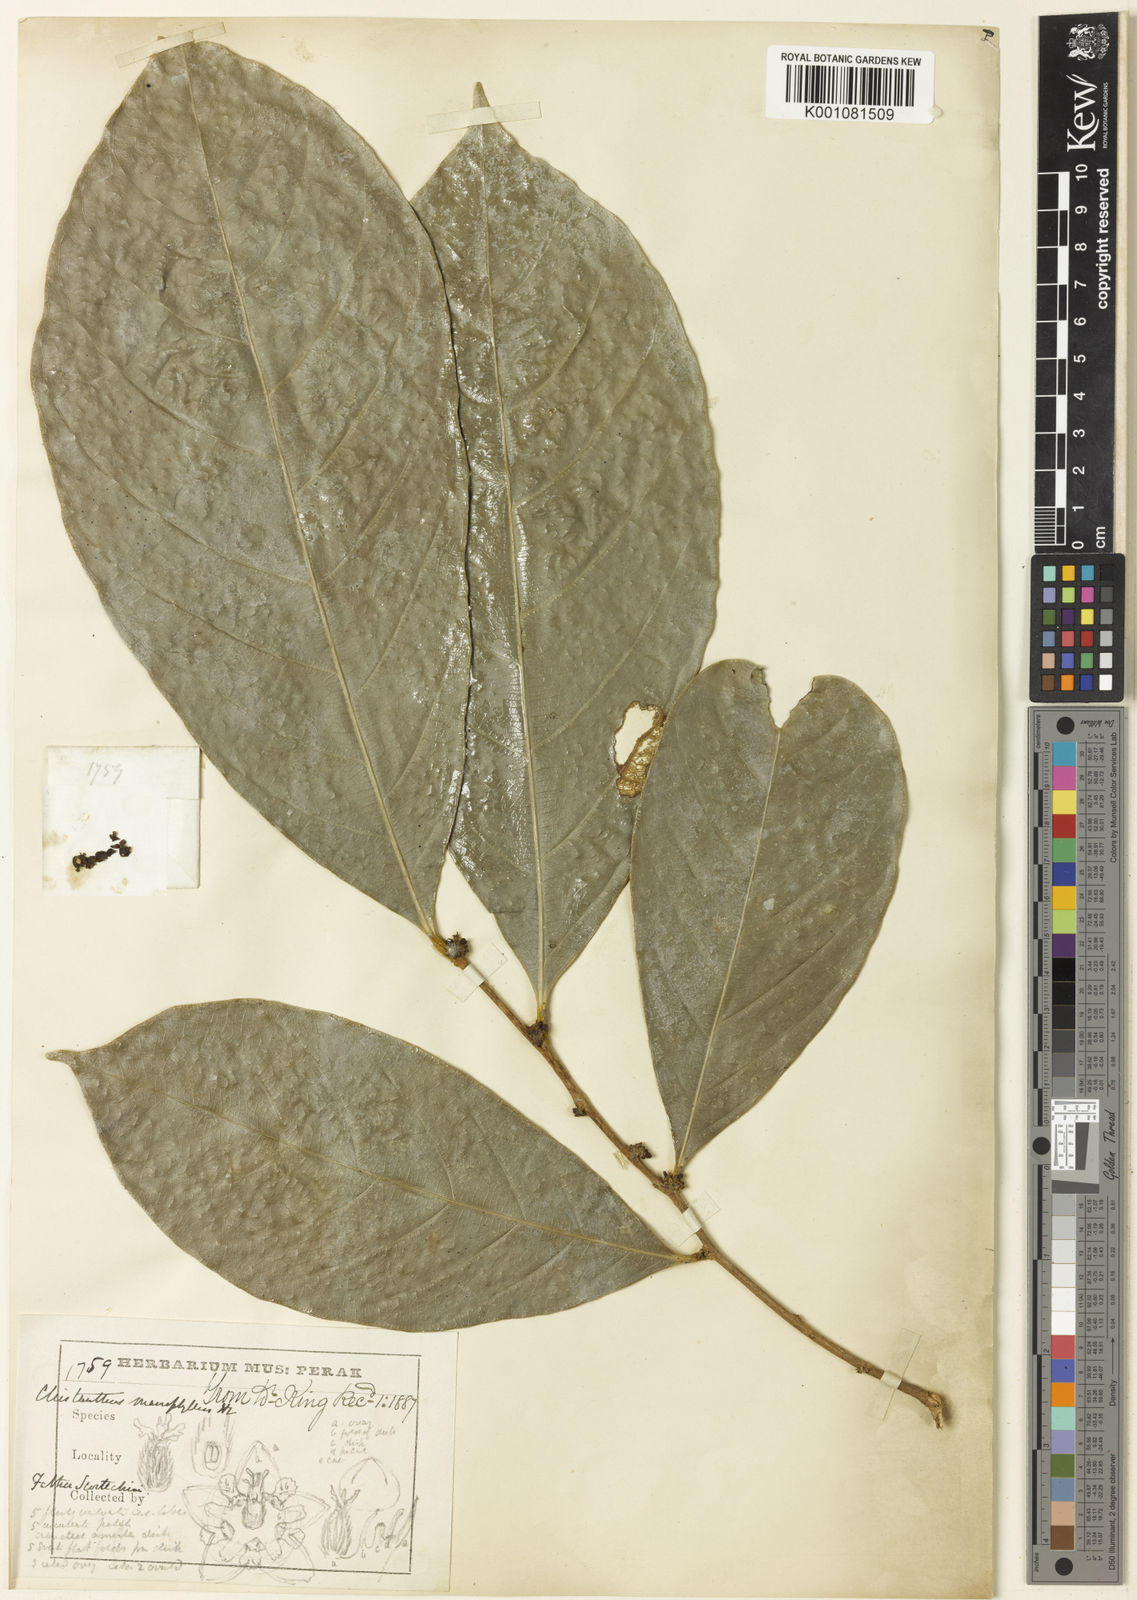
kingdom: Plantae
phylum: Tracheophyta
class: Magnoliopsida
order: Malpighiales
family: Phyllanthaceae
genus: Cleistanthus
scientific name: Cleistanthus macrophyllus
